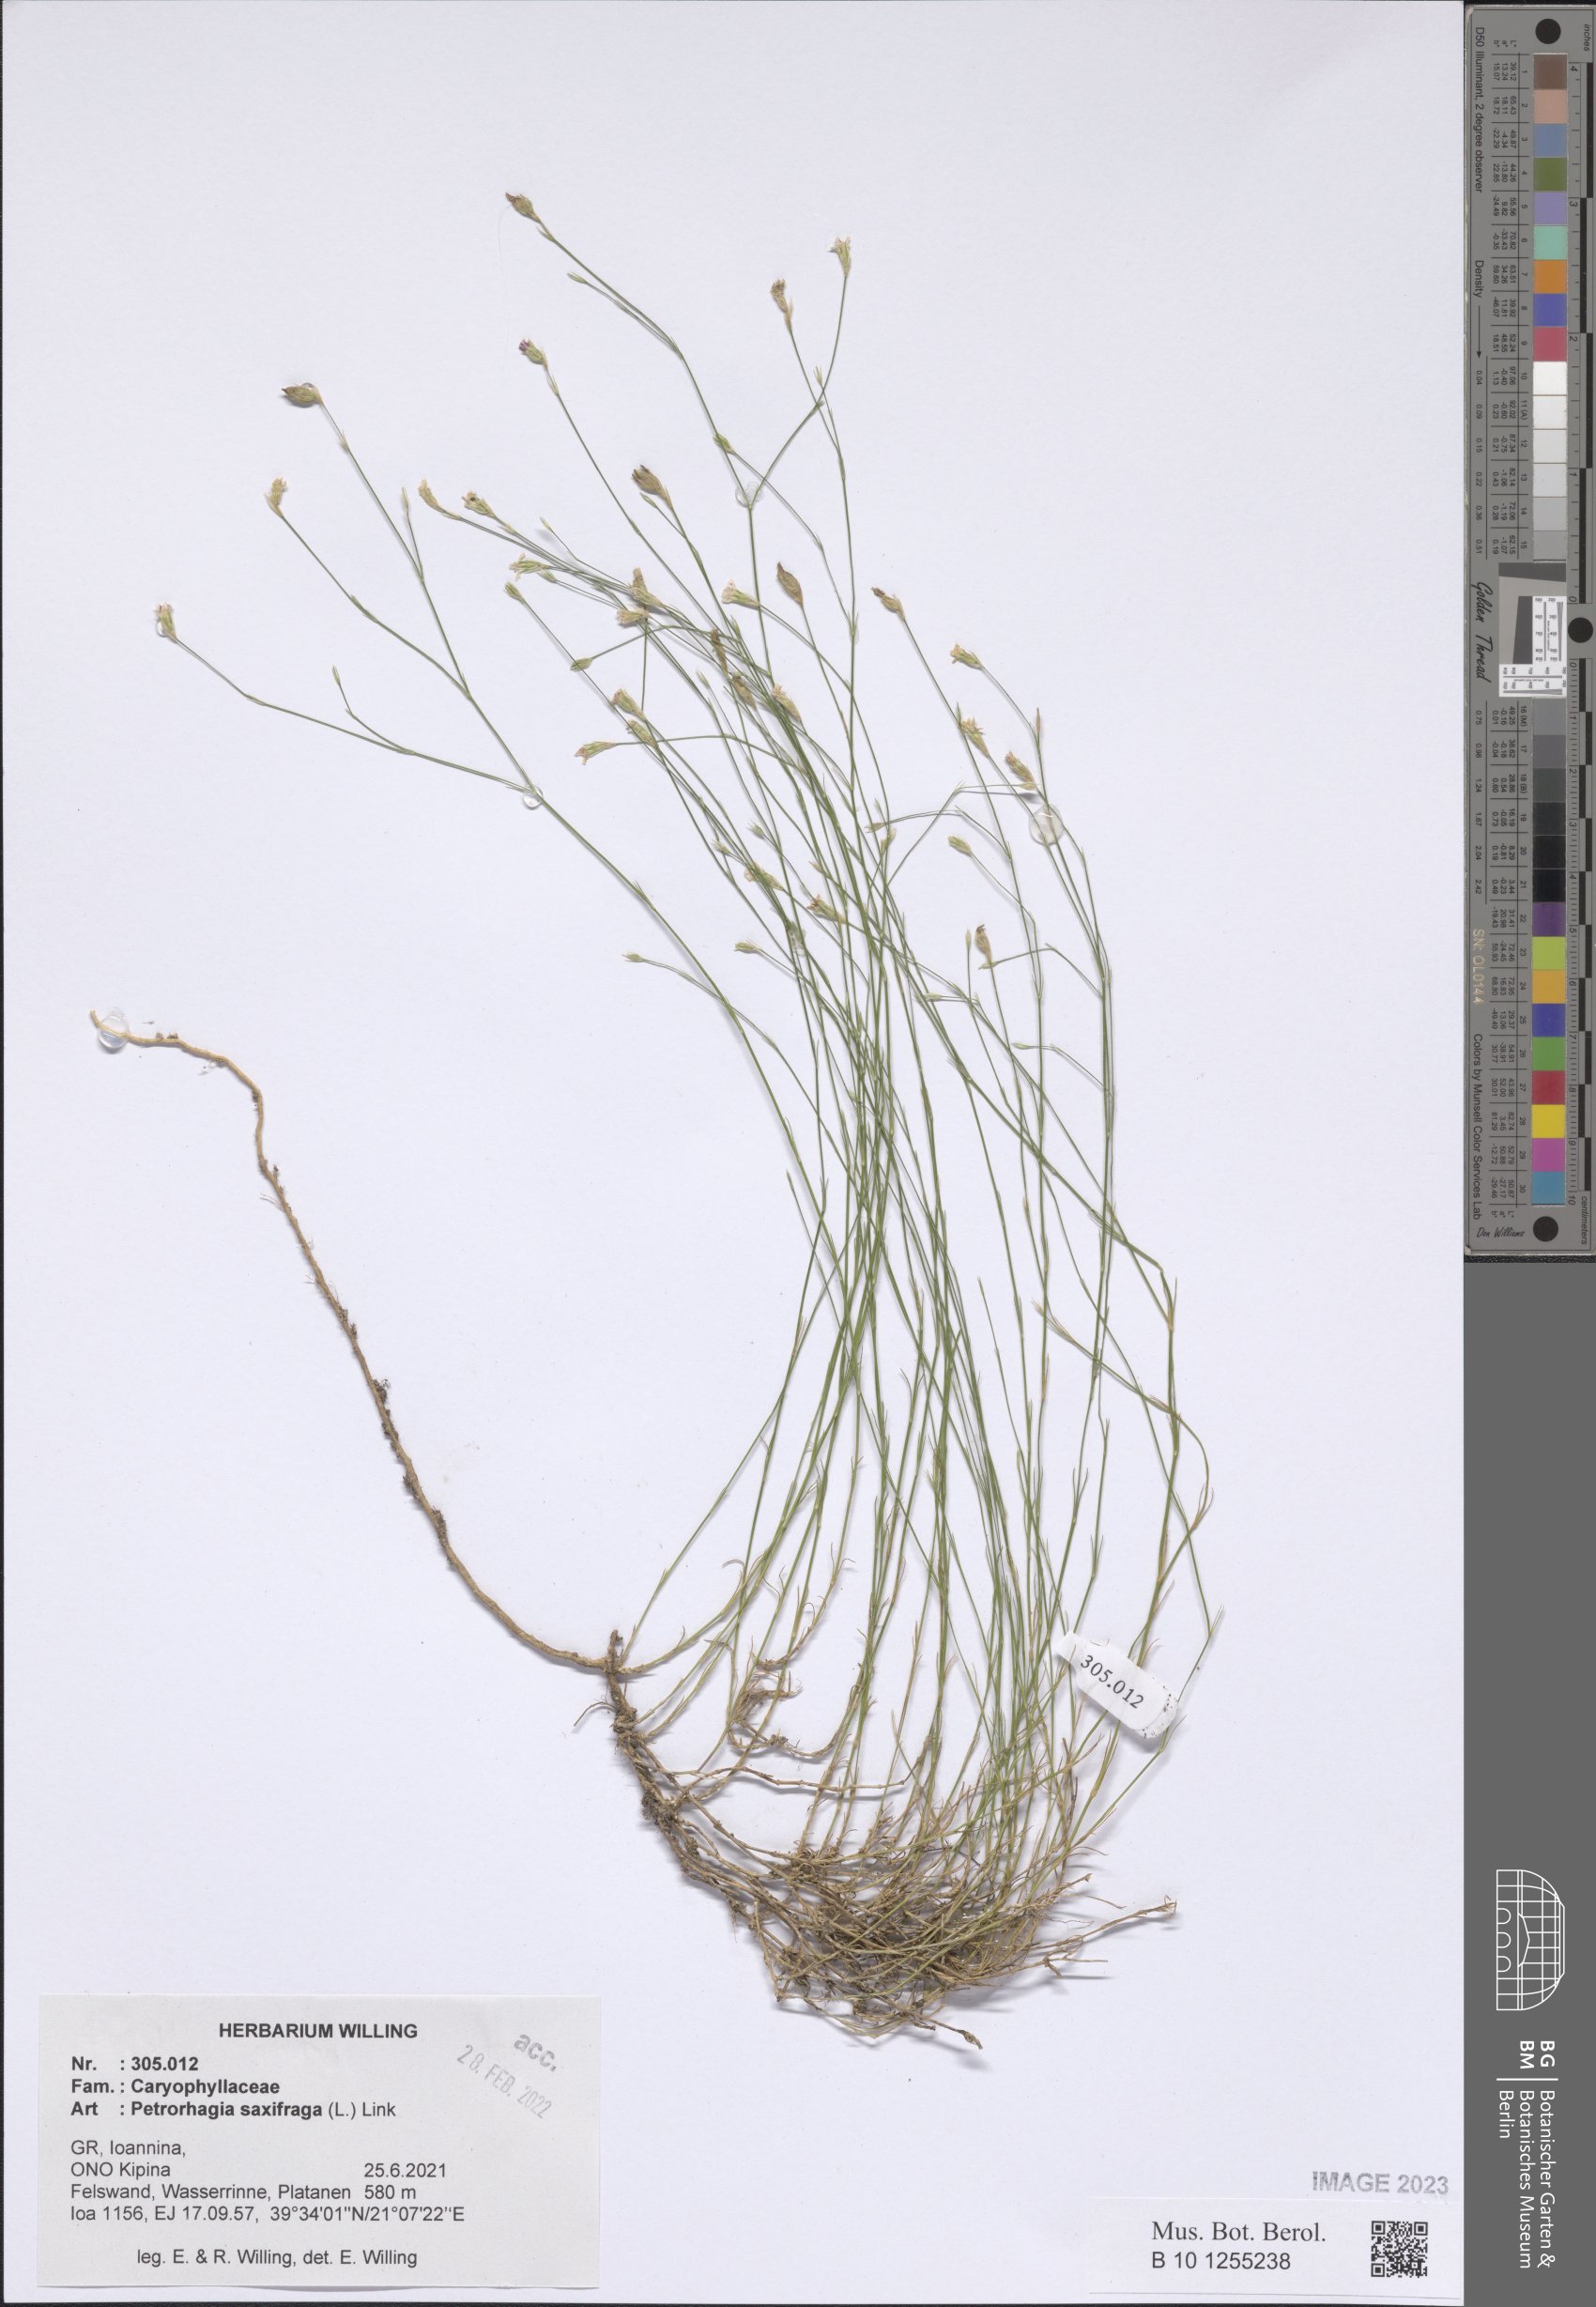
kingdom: Plantae
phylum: Tracheophyta
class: Magnoliopsida
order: Caryophyllales
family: Caryophyllaceae
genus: Petrorhagia
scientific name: Petrorhagia saxifraga
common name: Tunicflower
